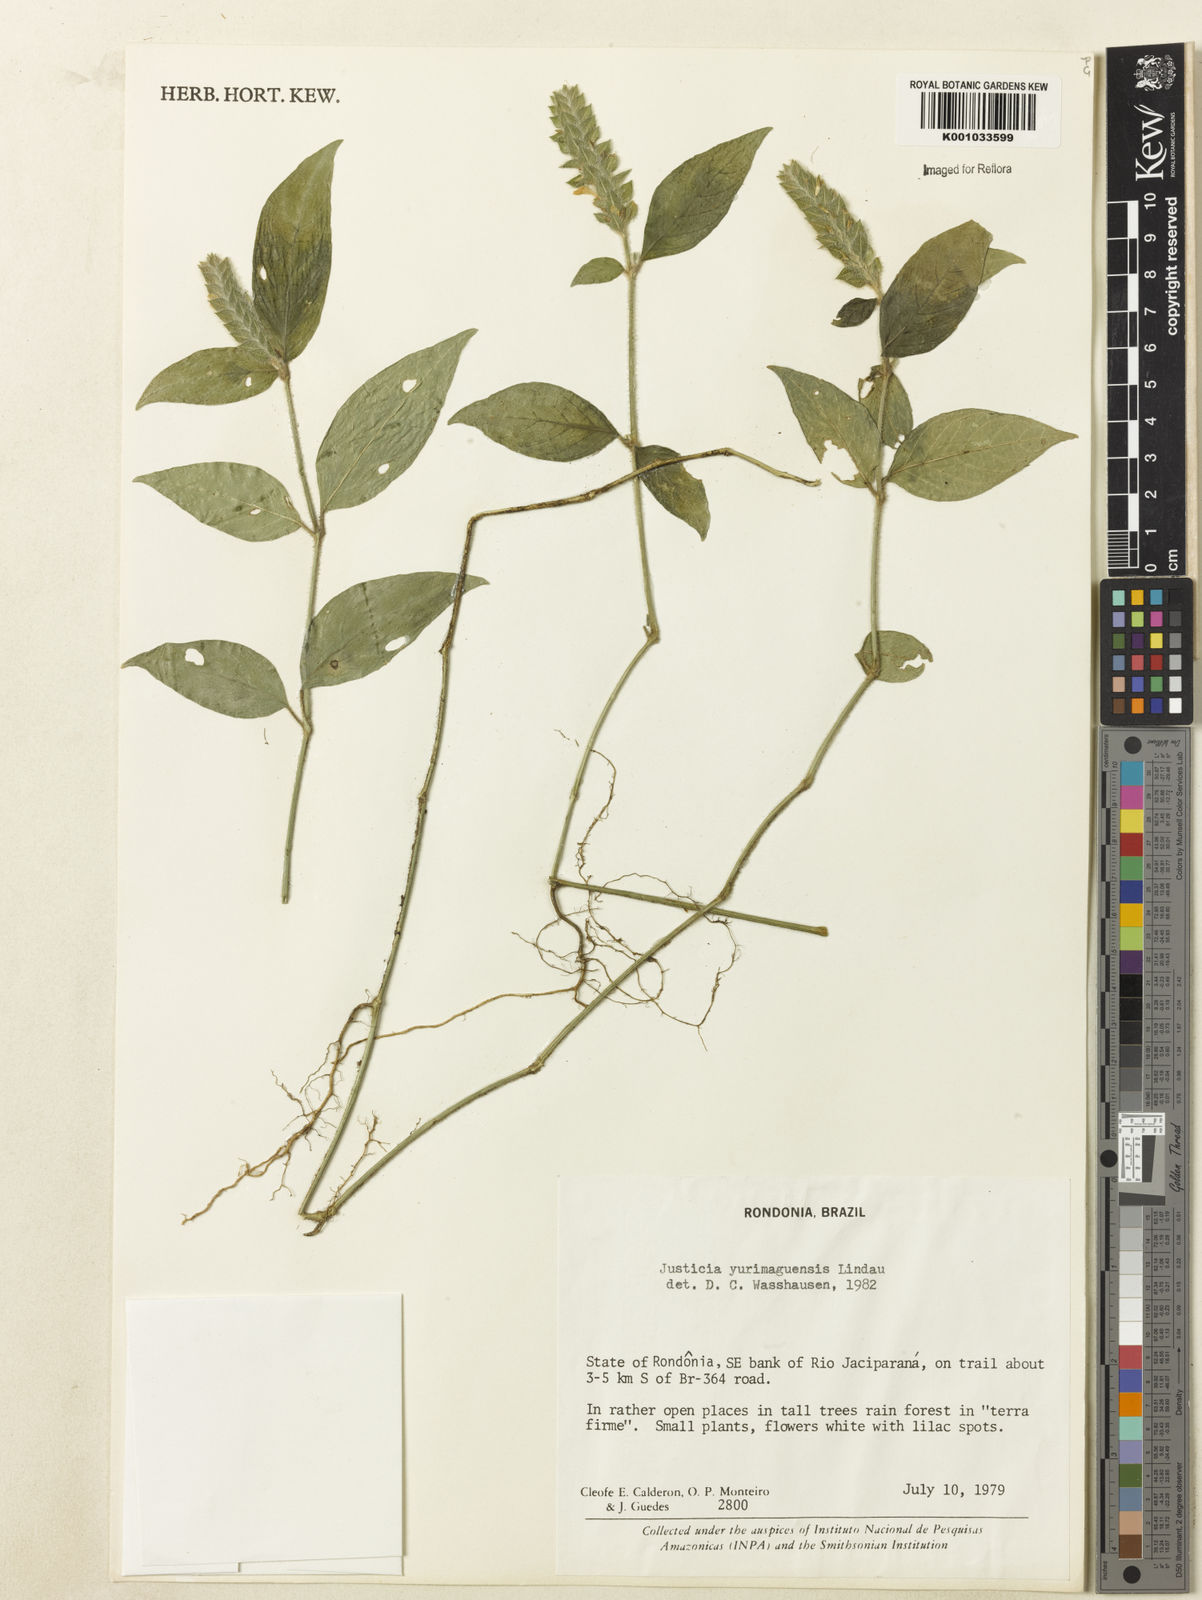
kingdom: Plantae
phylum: Tracheophyta
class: Magnoliopsida
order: Lamiales
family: Acanthaceae
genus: Justicia
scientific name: Justicia yurimaguensis
